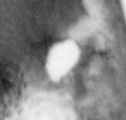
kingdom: Animalia
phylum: Chordata
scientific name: Chordata
